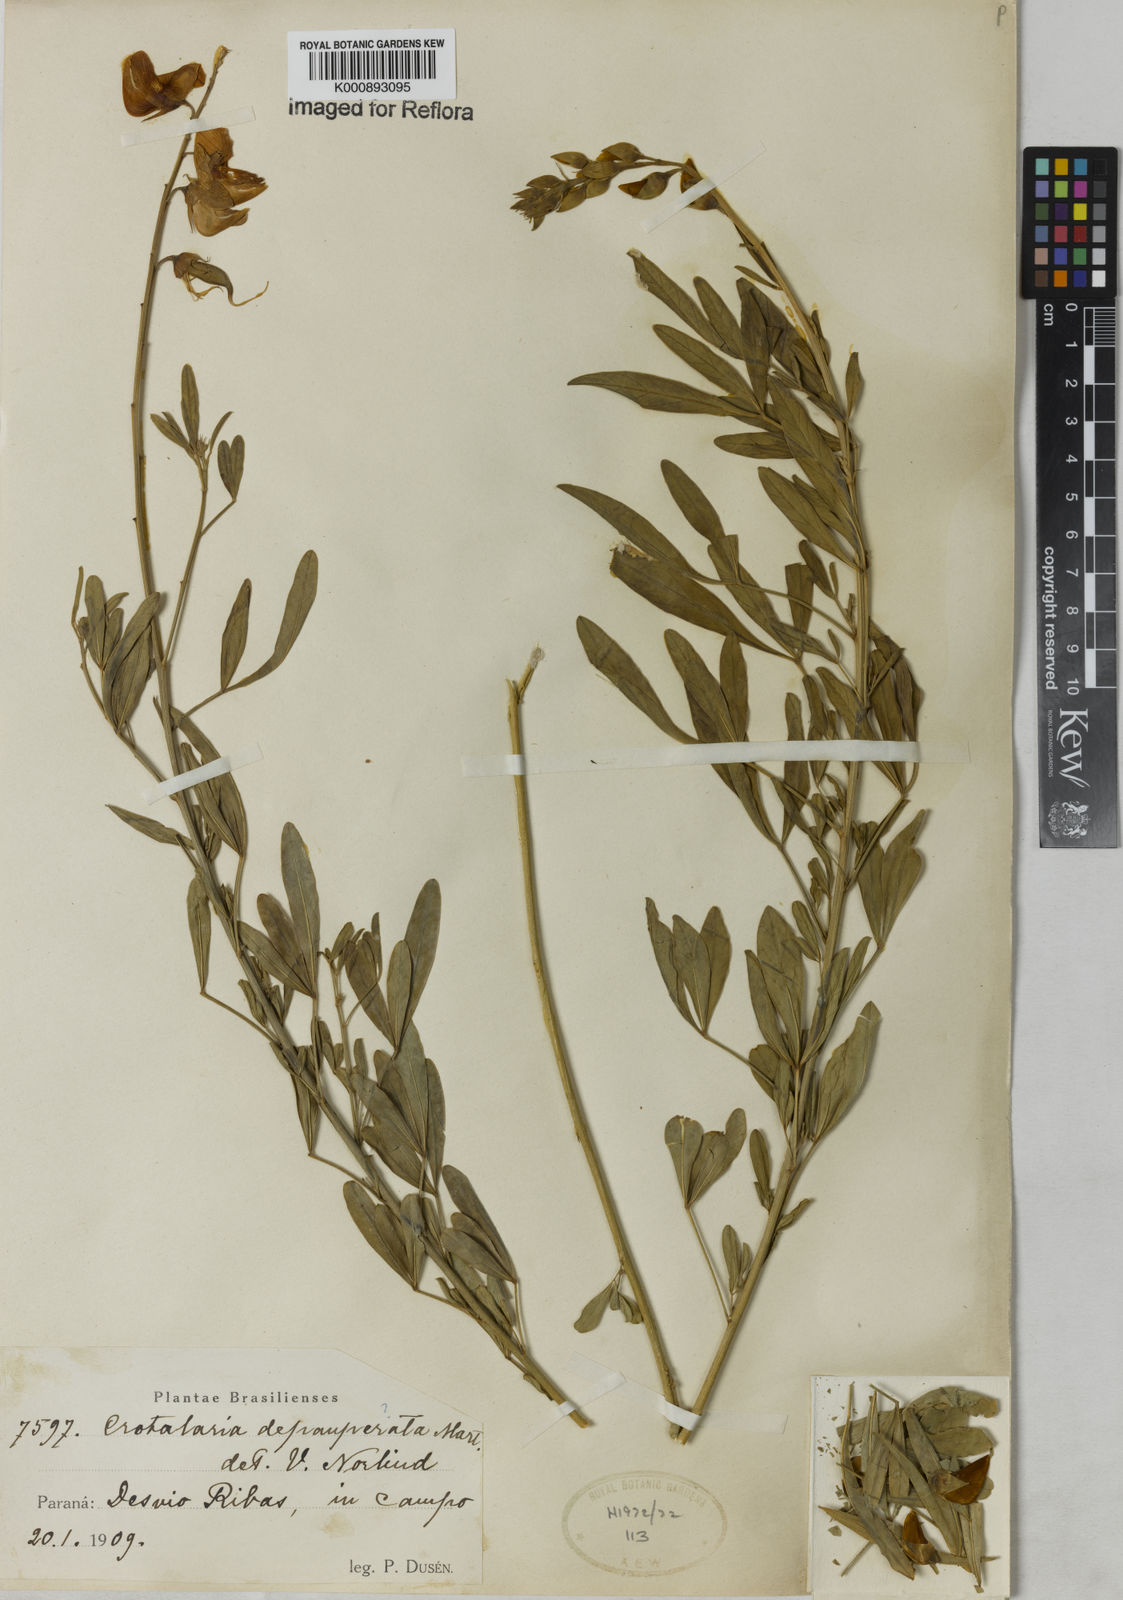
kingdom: Plantae
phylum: Tracheophyta
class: Magnoliopsida
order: Fabales
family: Fabaceae
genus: Crotalaria
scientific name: Crotalaria
